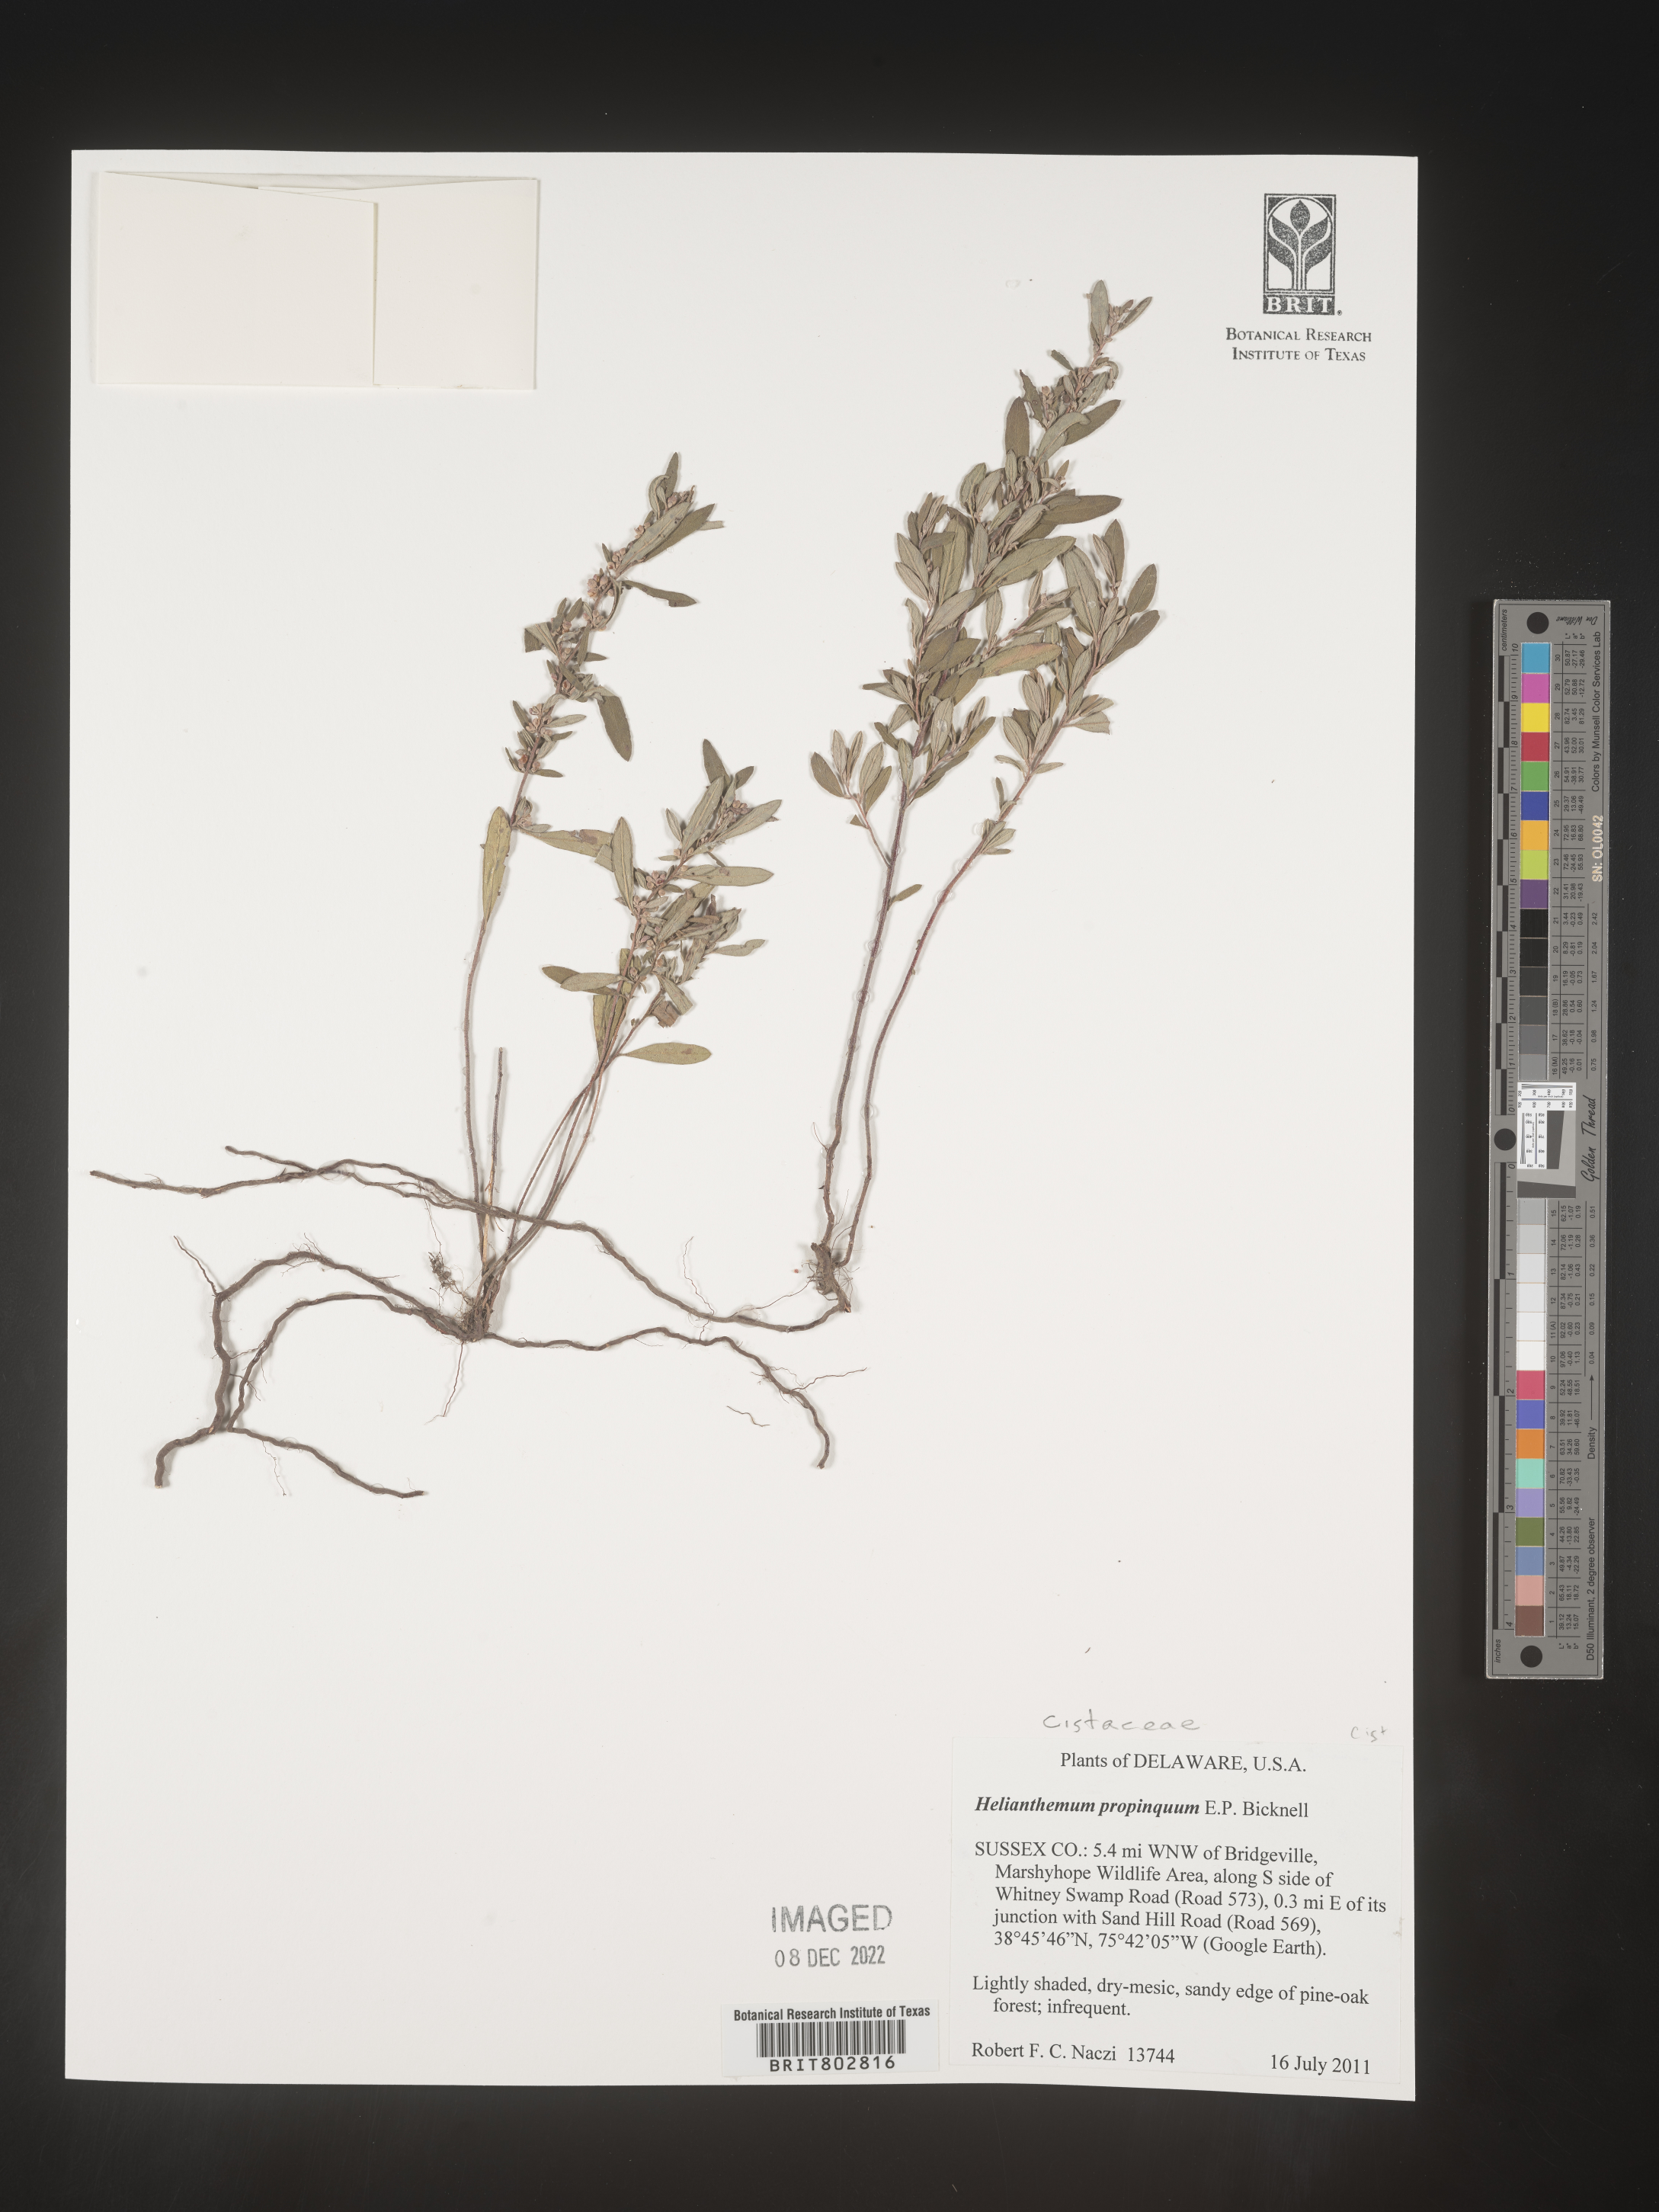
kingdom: Plantae
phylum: Tracheophyta
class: Magnoliopsida
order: Malvales
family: Cistaceae
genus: Crocanthemum
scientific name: Crocanthemum propinquum
